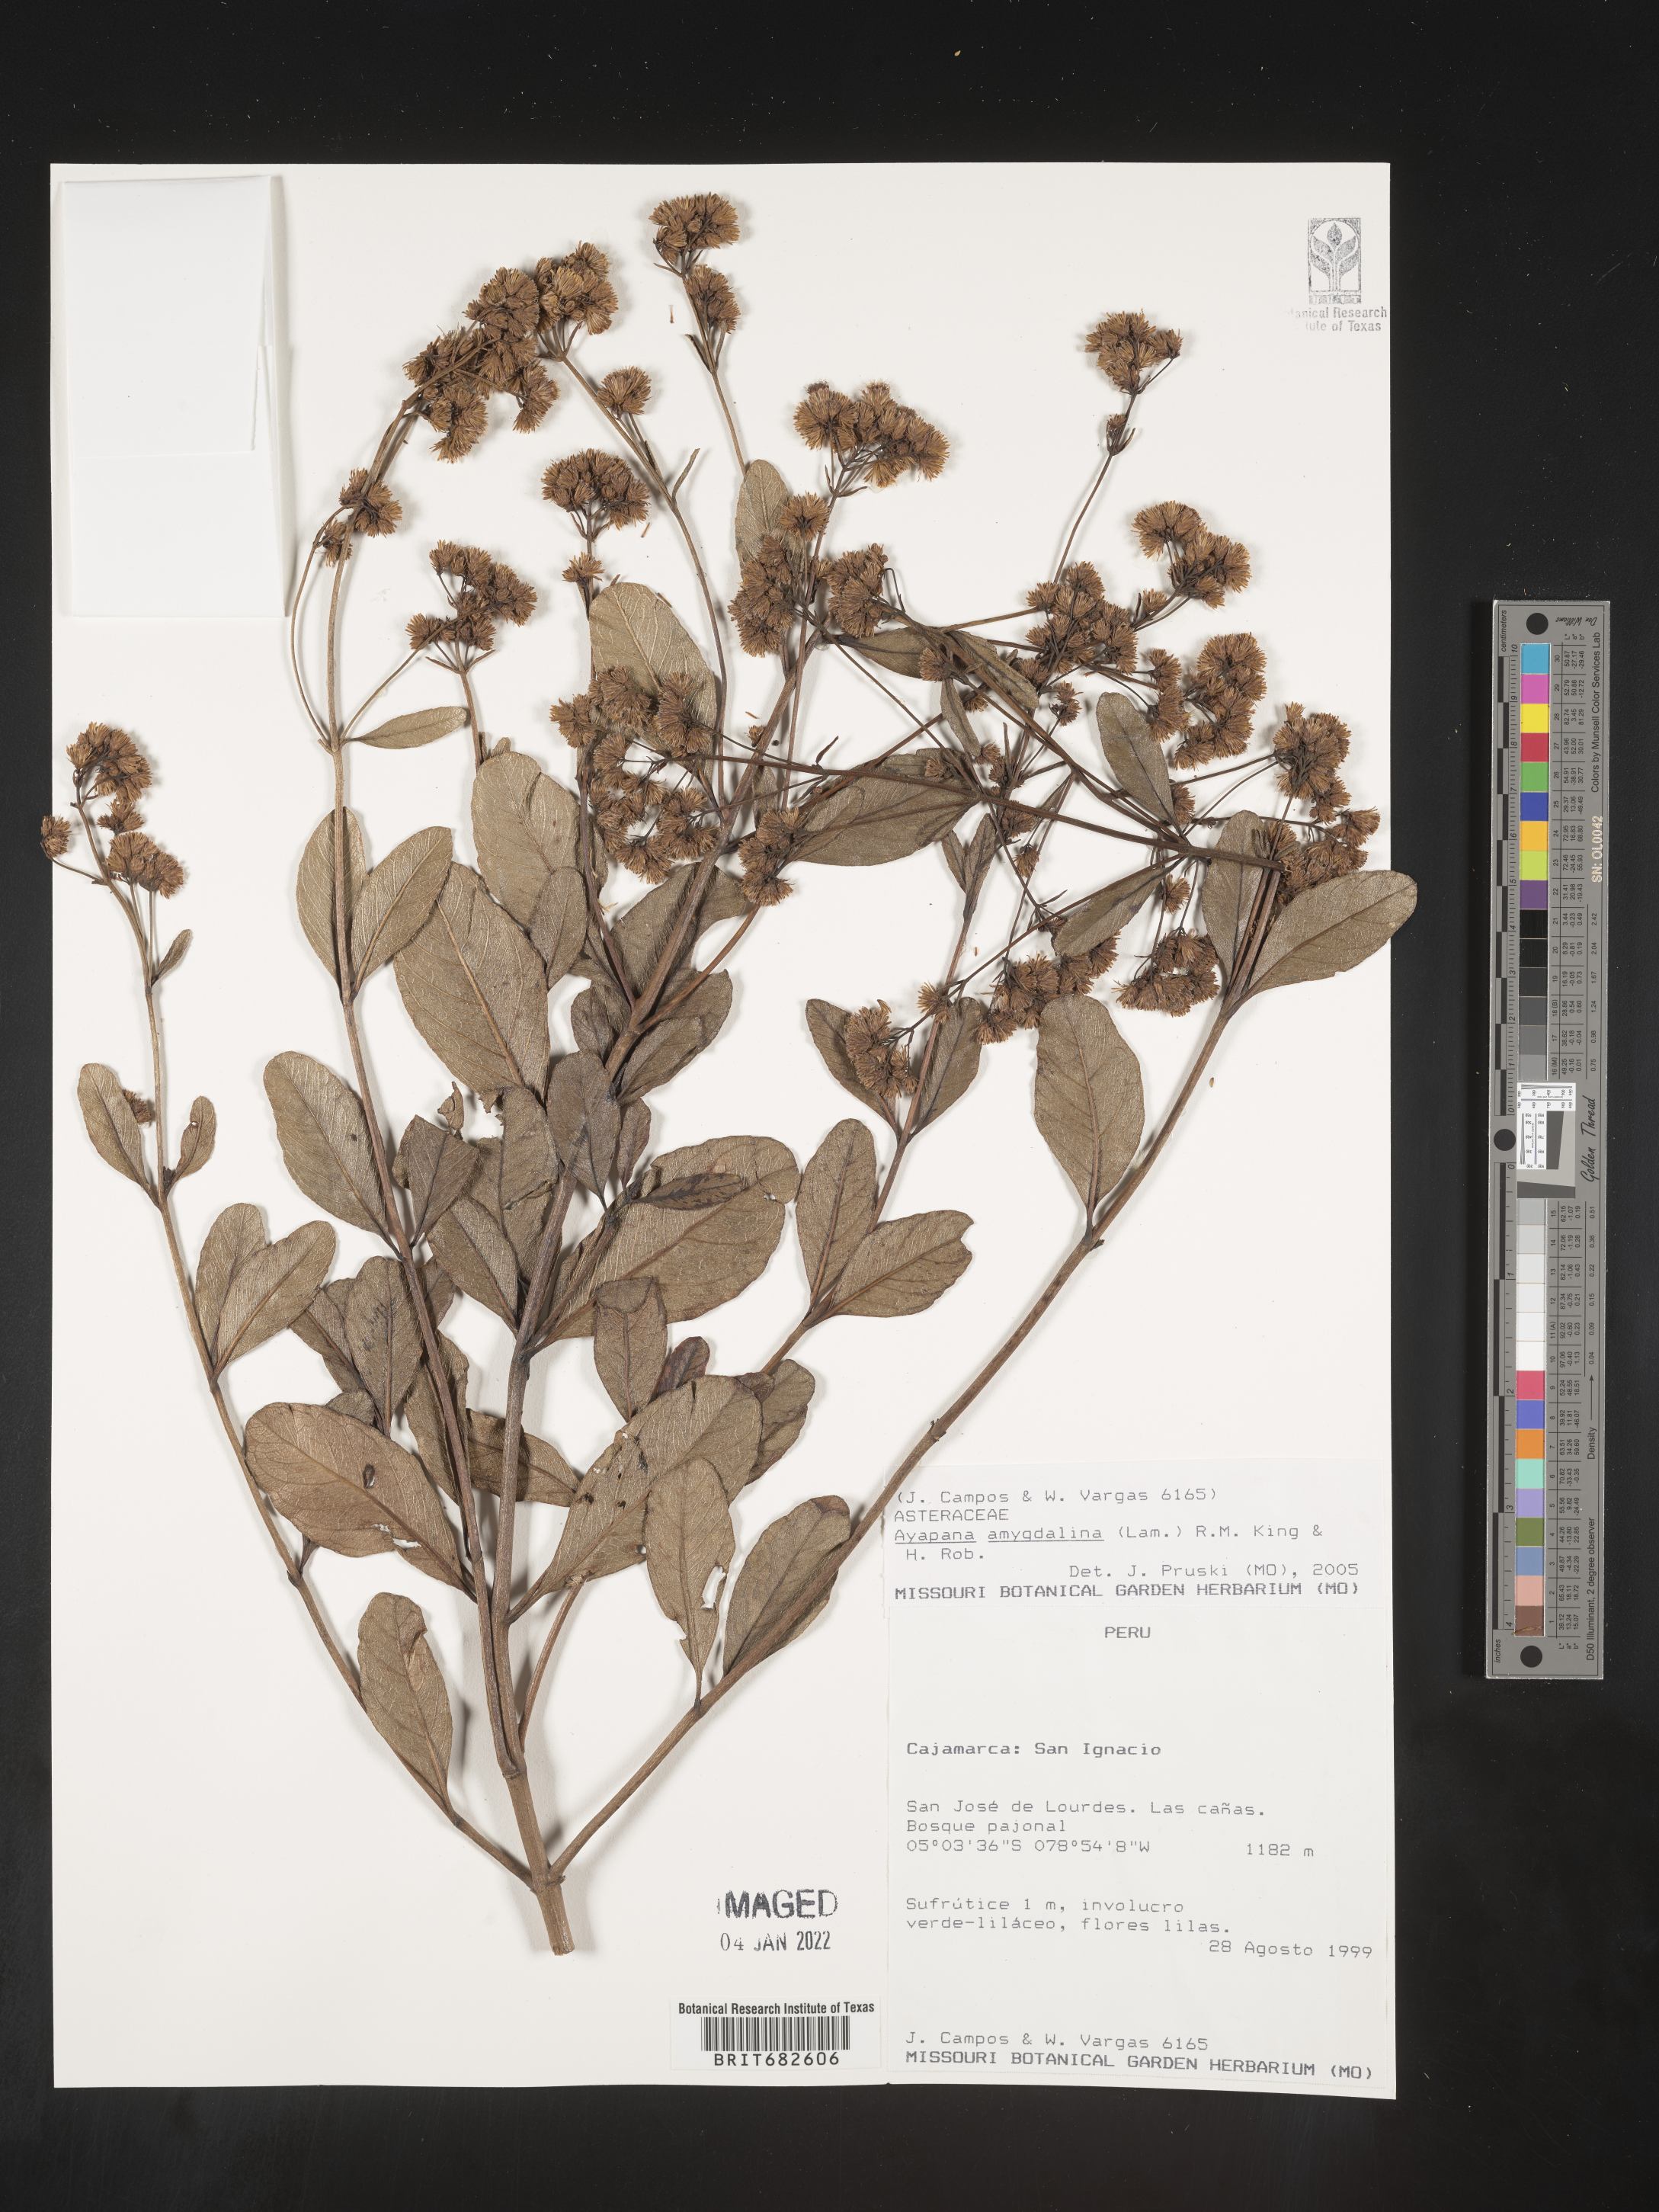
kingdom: Plantae
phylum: Tracheophyta
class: Magnoliopsida
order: Asterales
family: Asteraceae
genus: Ayapana
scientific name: Ayapana
